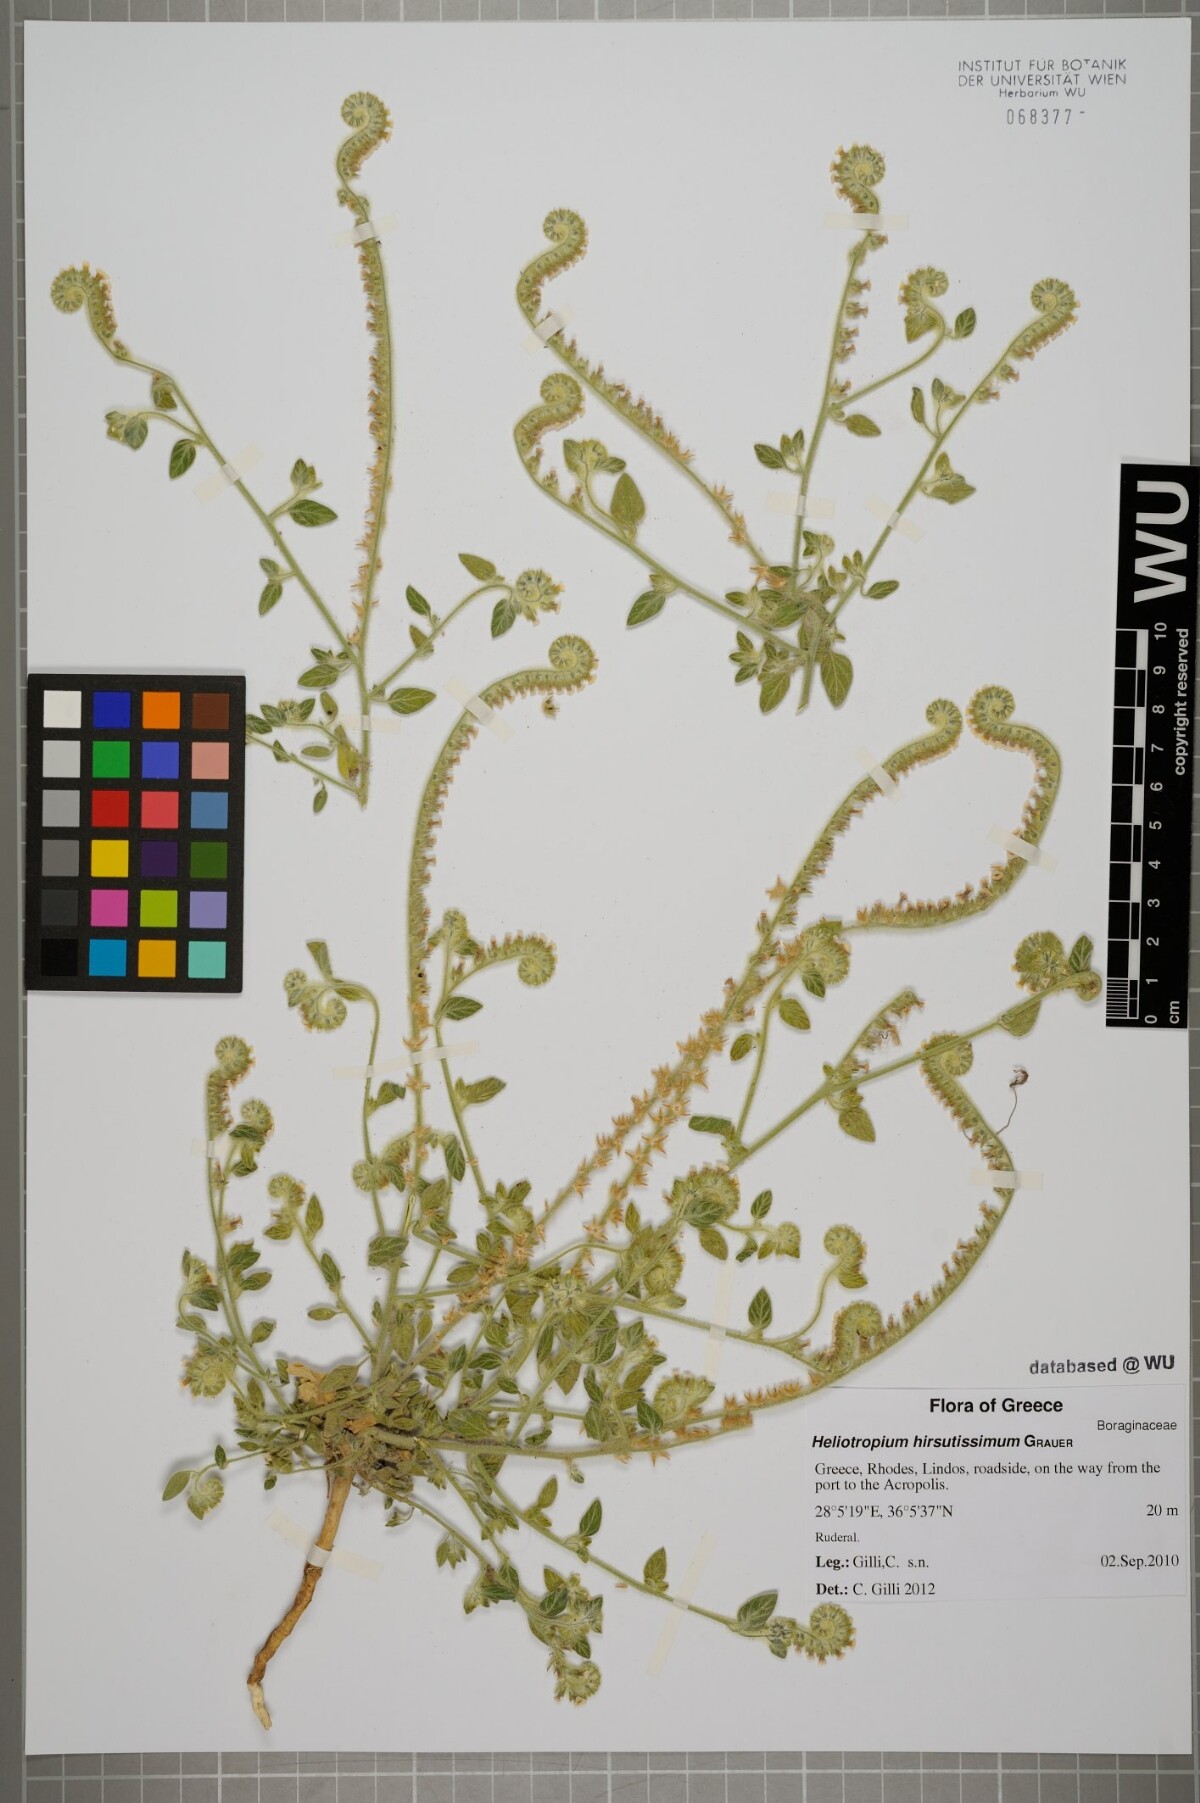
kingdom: Plantae
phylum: Tracheophyta
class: Magnoliopsida
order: Boraginales
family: Heliotropiaceae
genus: Heliotropium
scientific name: Heliotropium hirsutissimum
